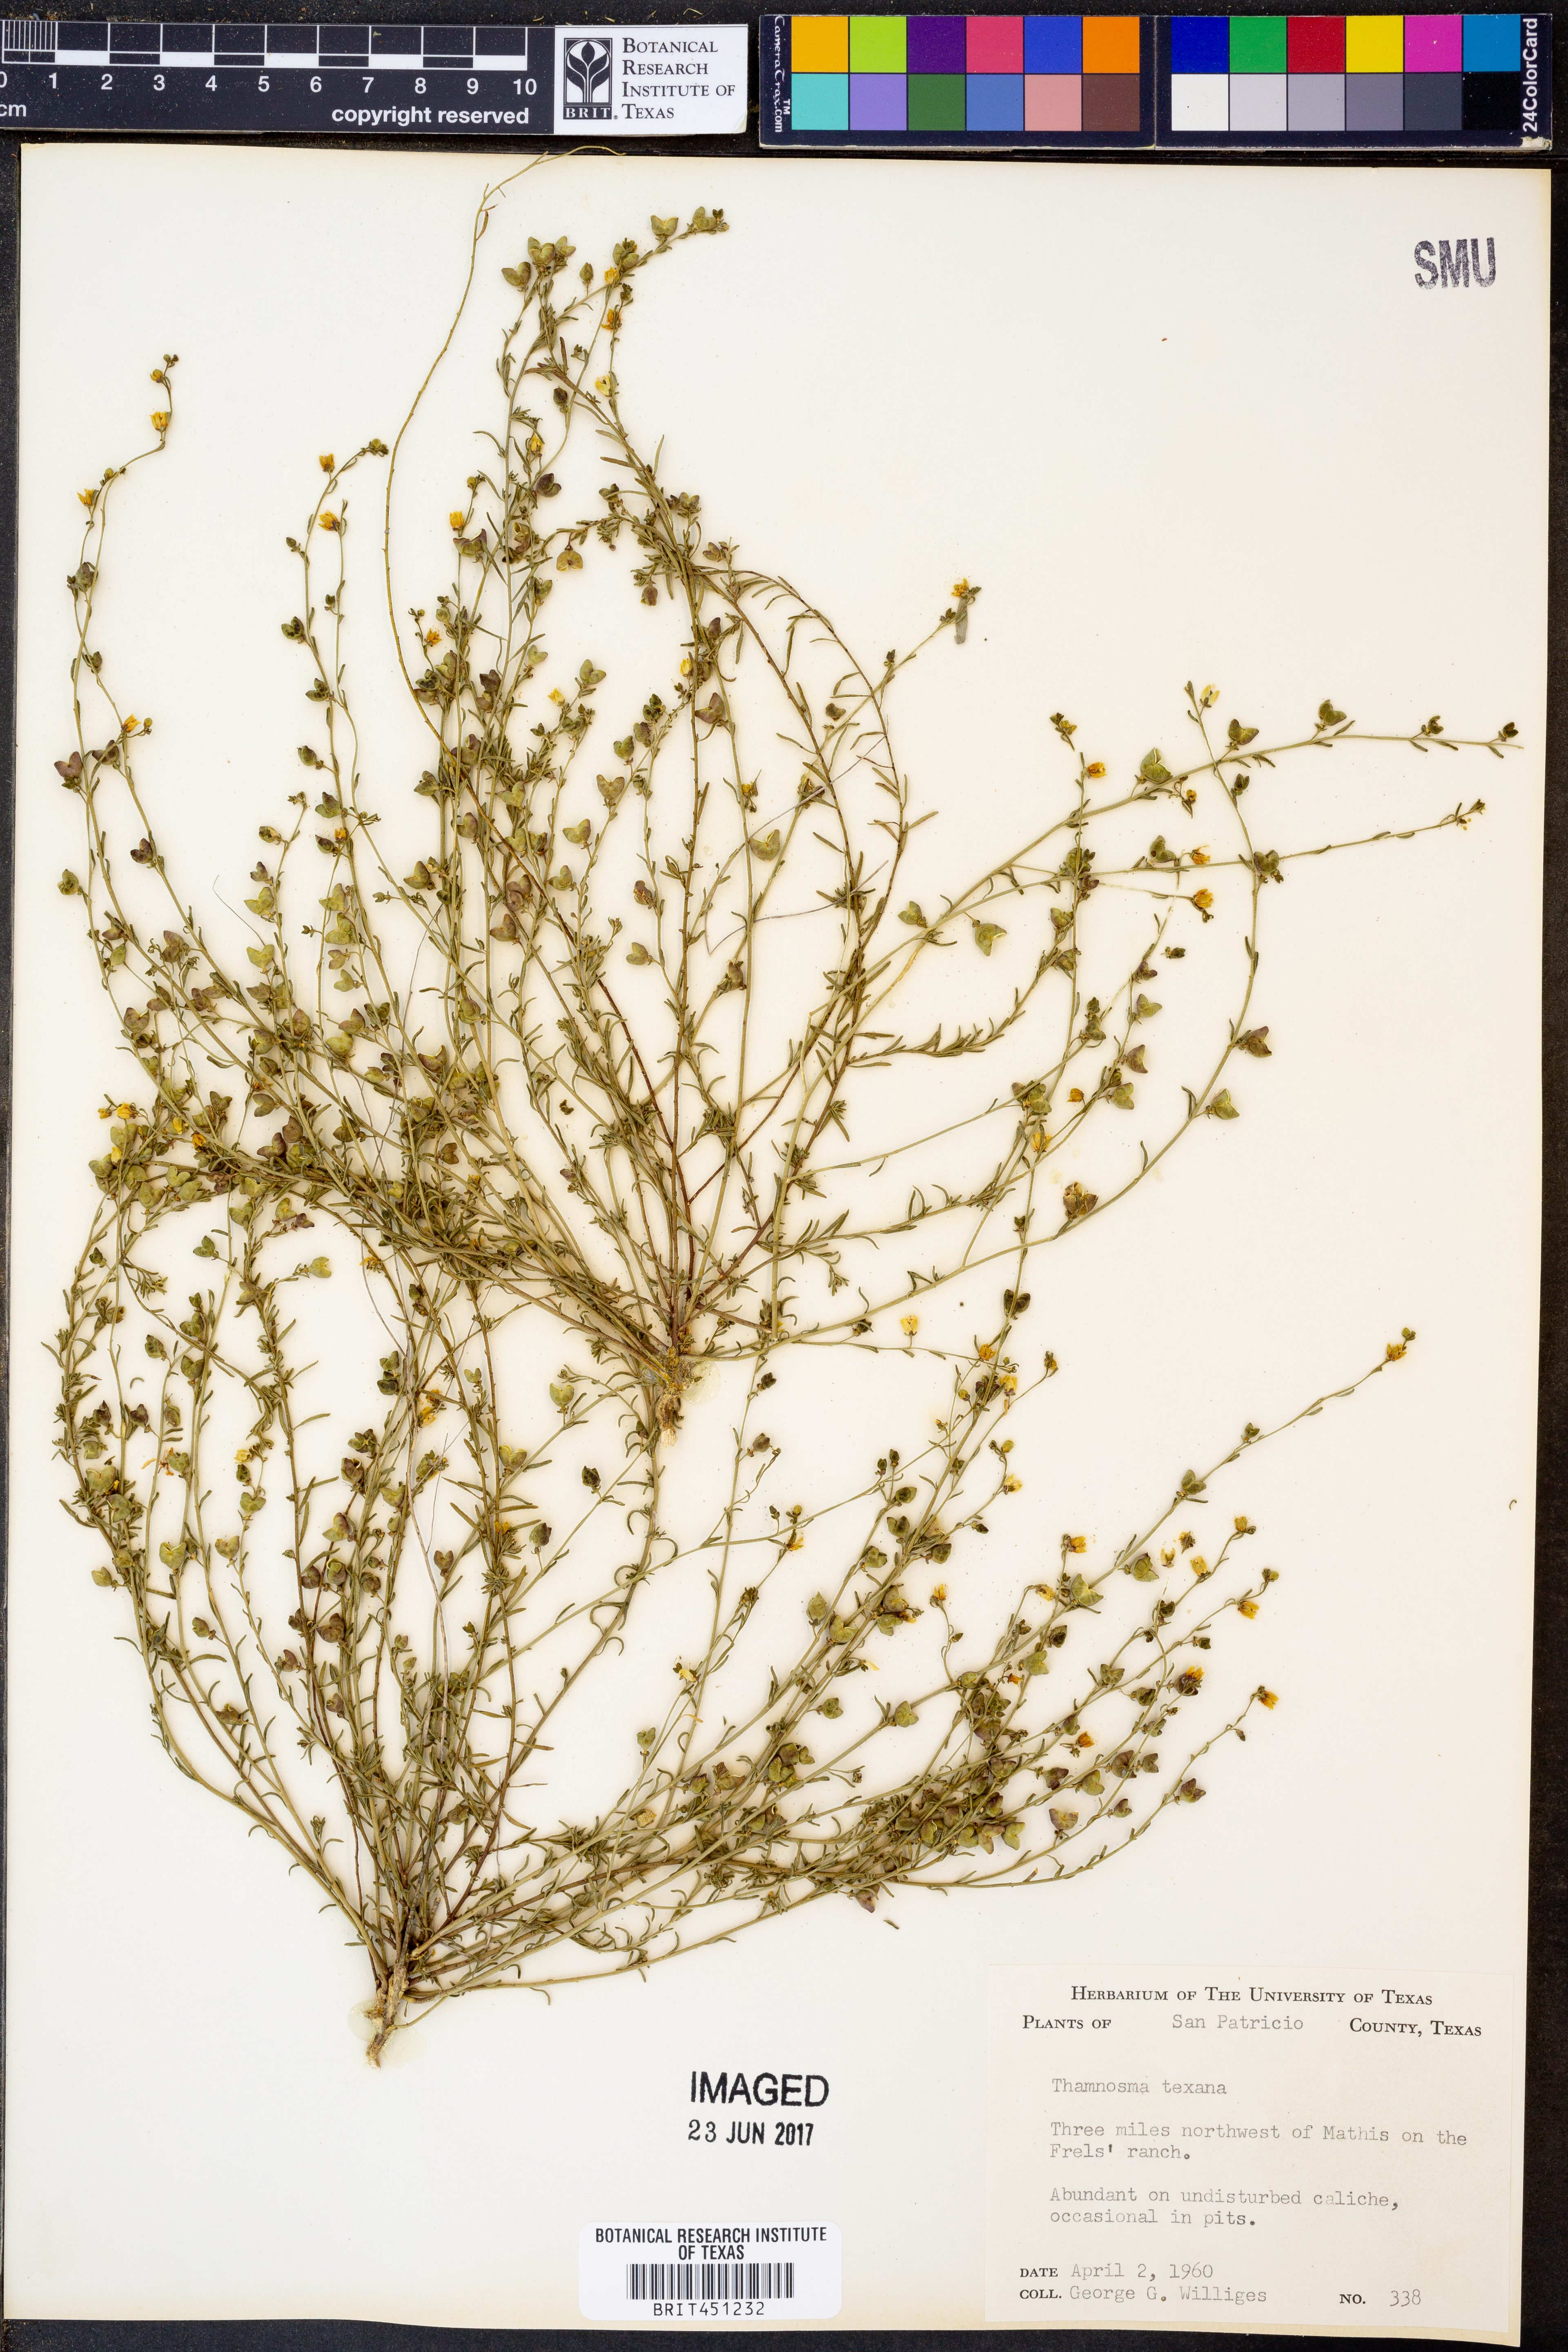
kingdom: Plantae
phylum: Tracheophyta
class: Magnoliopsida
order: Sapindales
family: Rutaceae
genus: Thamnosma
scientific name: Thamnosma texana
